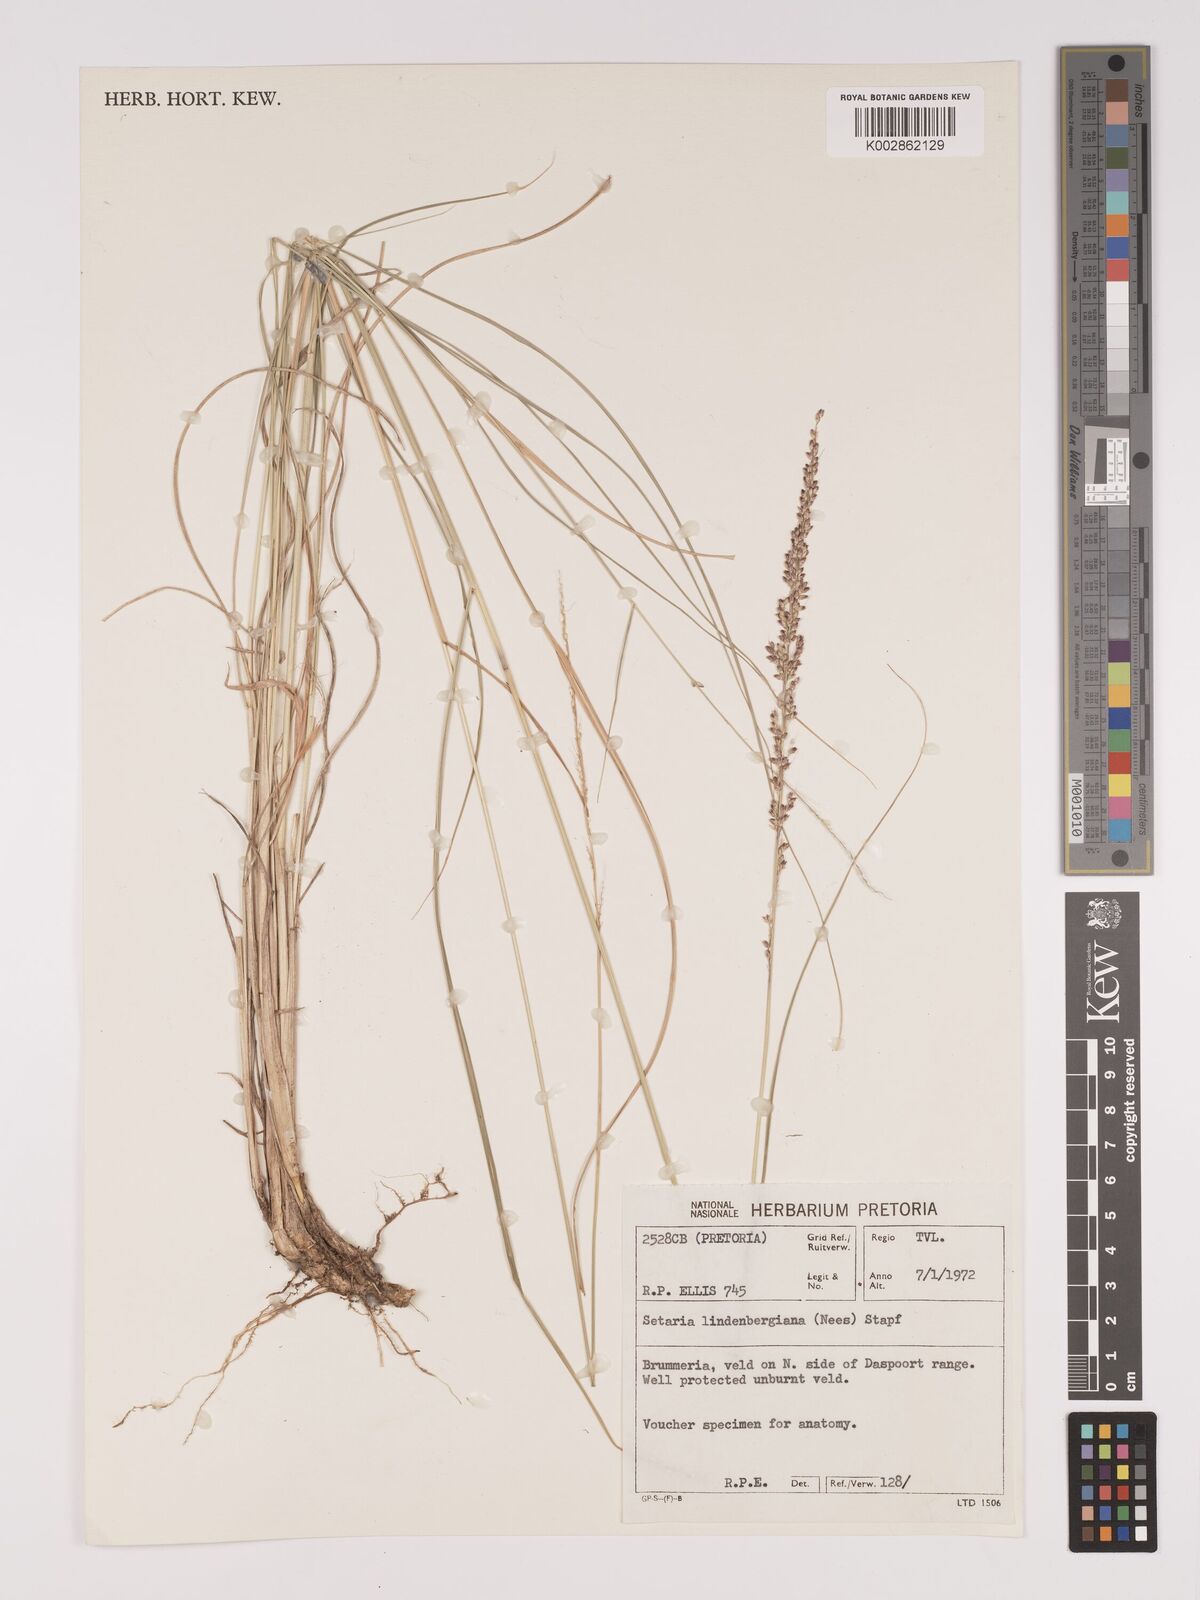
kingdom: Plantae
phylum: Tracheophyta
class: Liliopsida
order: Poales
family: Poaceae
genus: Setaria
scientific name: Setaria lindenbergiana
